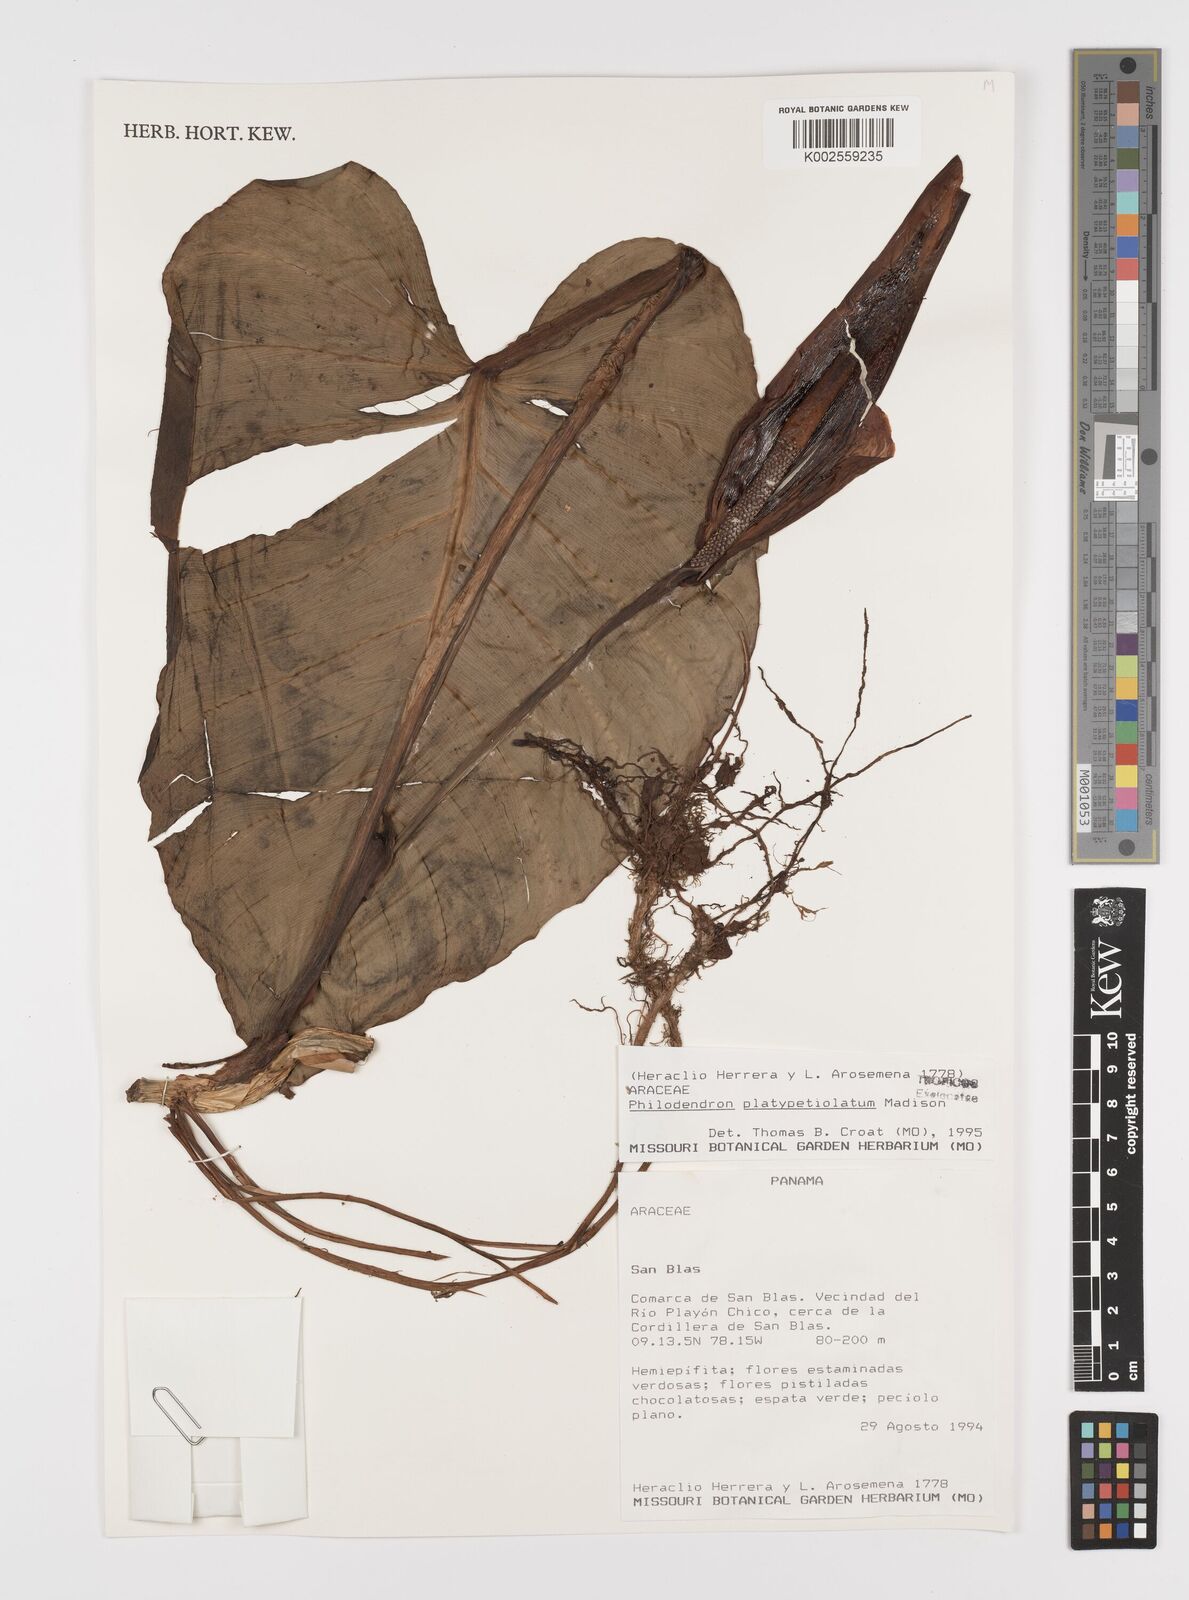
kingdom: Plantae
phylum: Tracheophyta
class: Liliopsida
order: Alismatales
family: Araceae
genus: Philodendron
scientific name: Philodendron platypetiolatum
